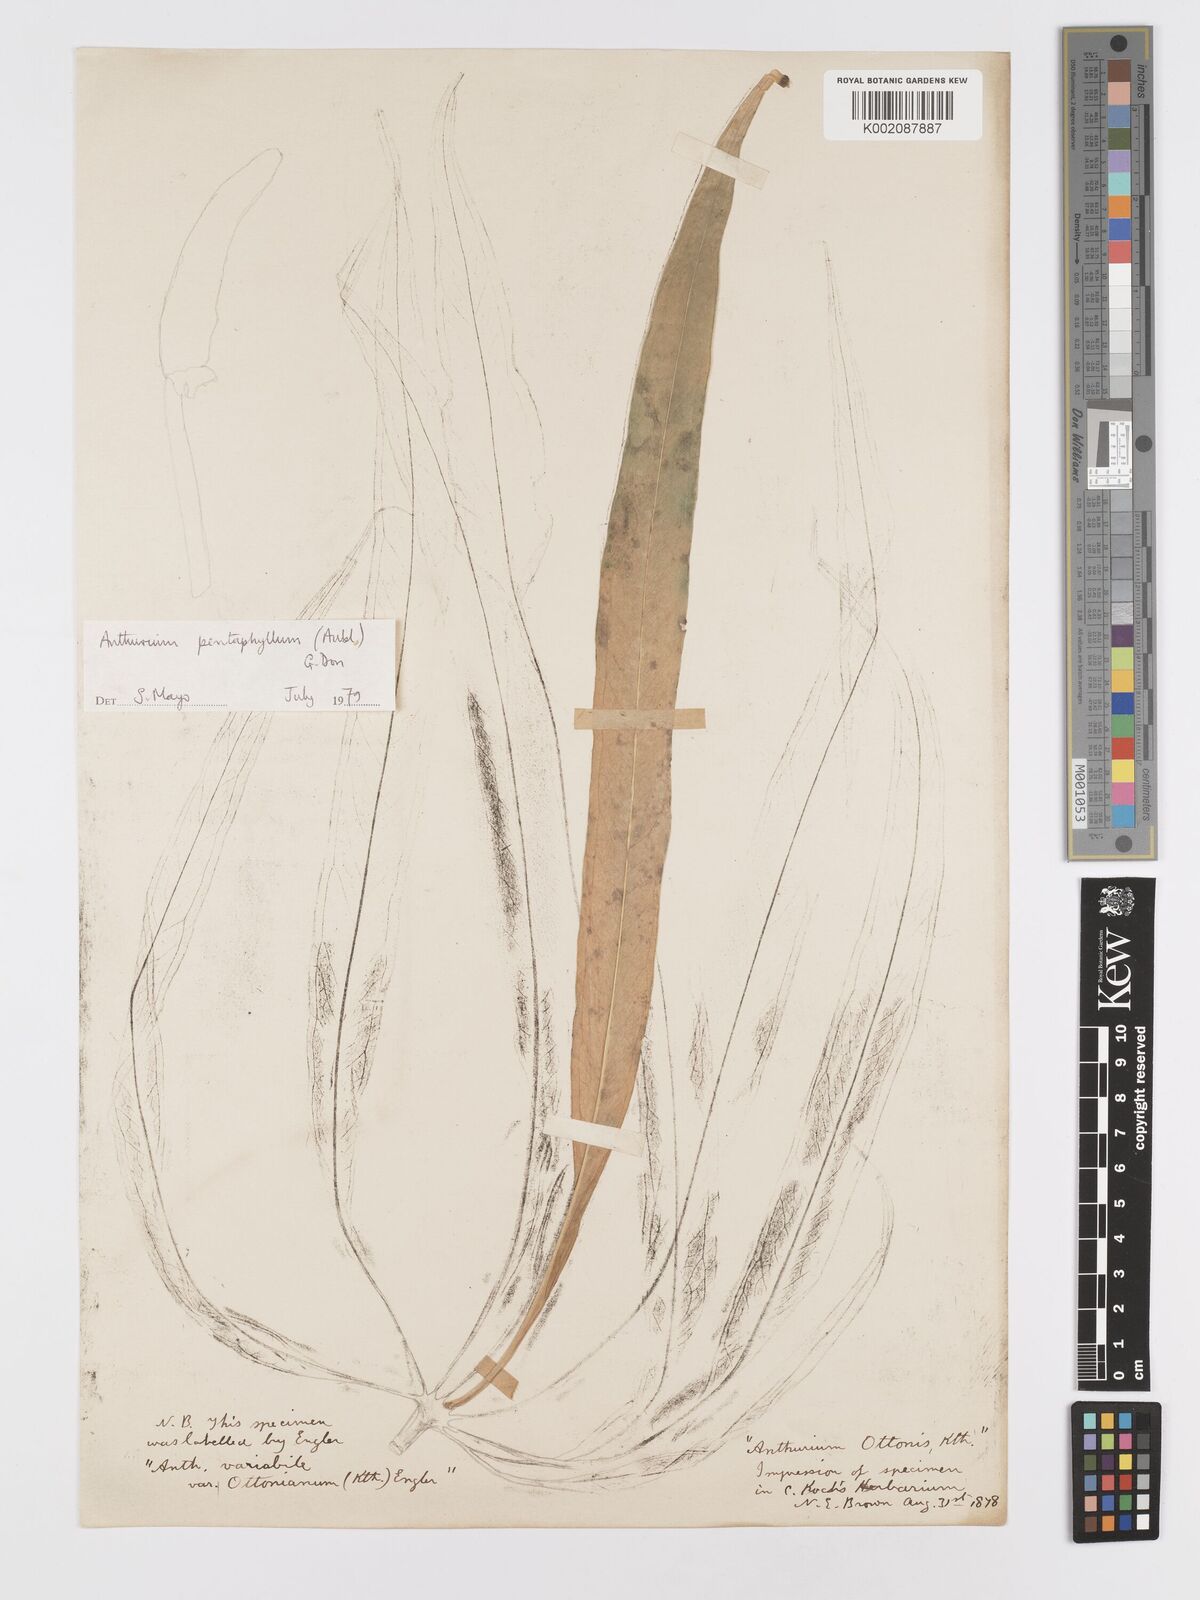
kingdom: Plantae
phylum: Tracheophyta
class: Liliopsida
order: Alismatales
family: Araceae
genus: Anthurium
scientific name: Anthurium pentaphyllum
